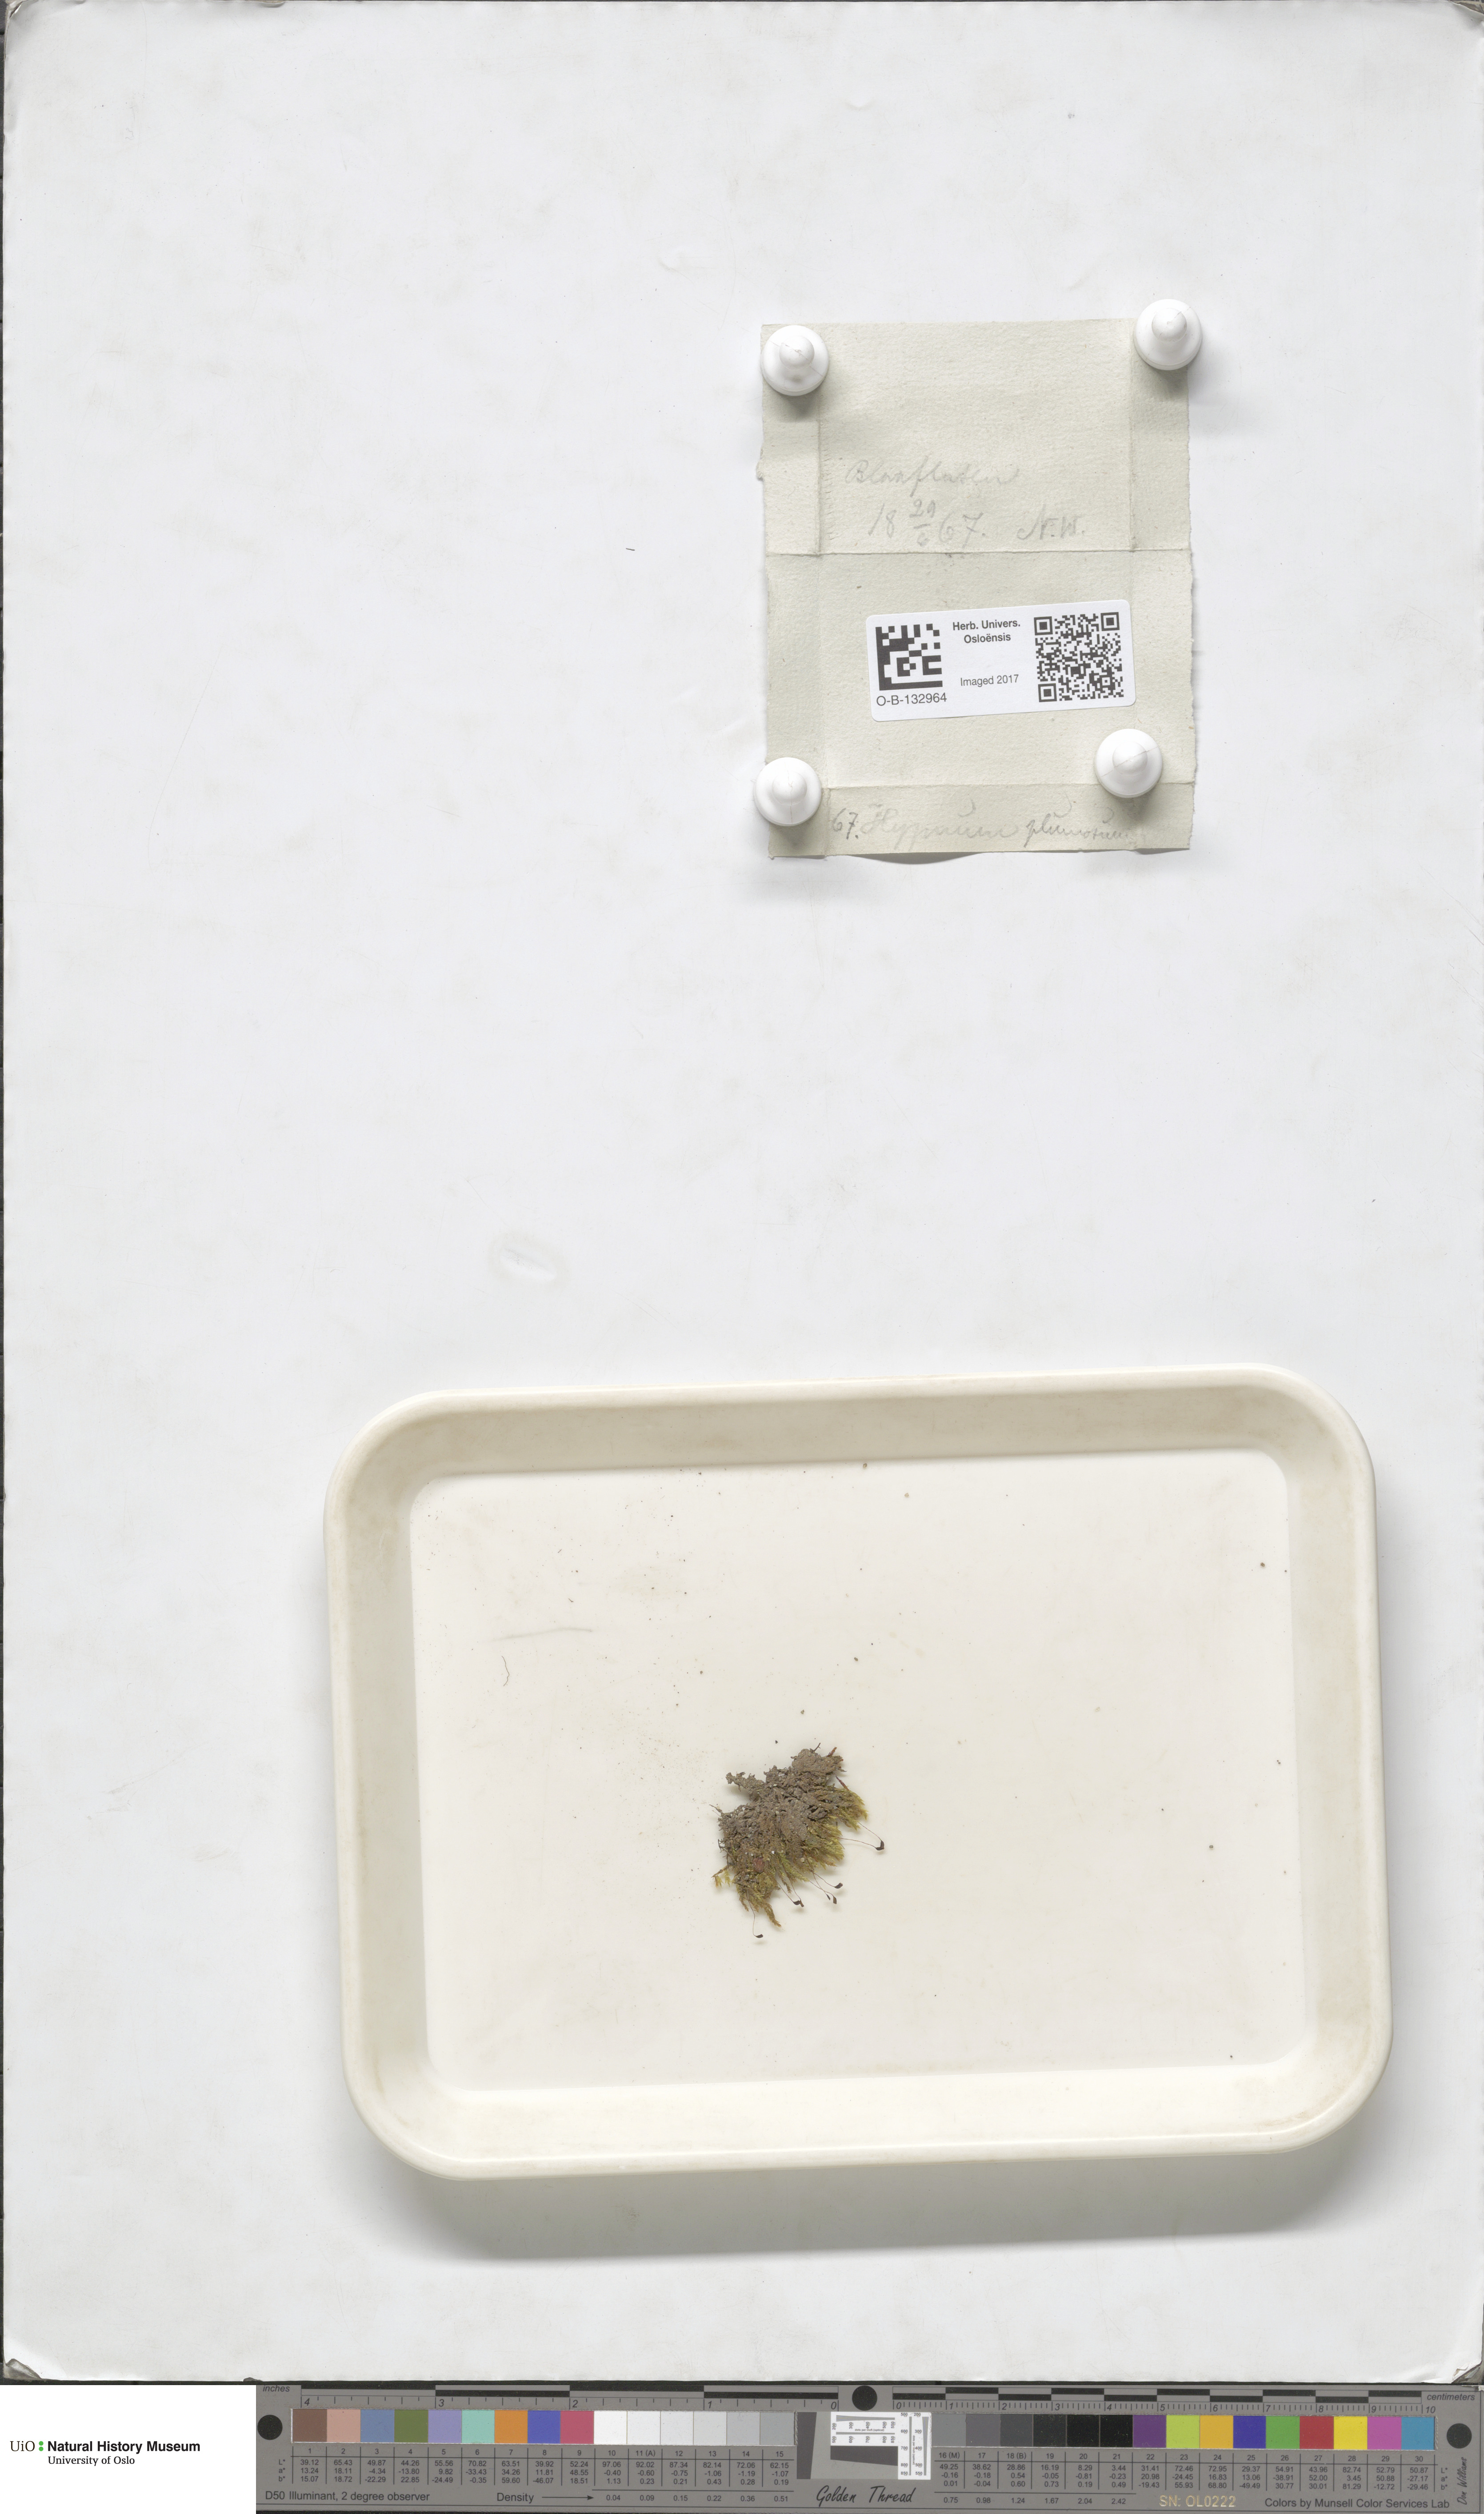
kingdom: Plantae
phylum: Bryophyta
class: Bryopsida
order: Hypnales
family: Brachytheciaceae
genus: Sciuro-hypnum
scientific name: Sciuro-hypnum plumosum
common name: Rusty feather-moss
